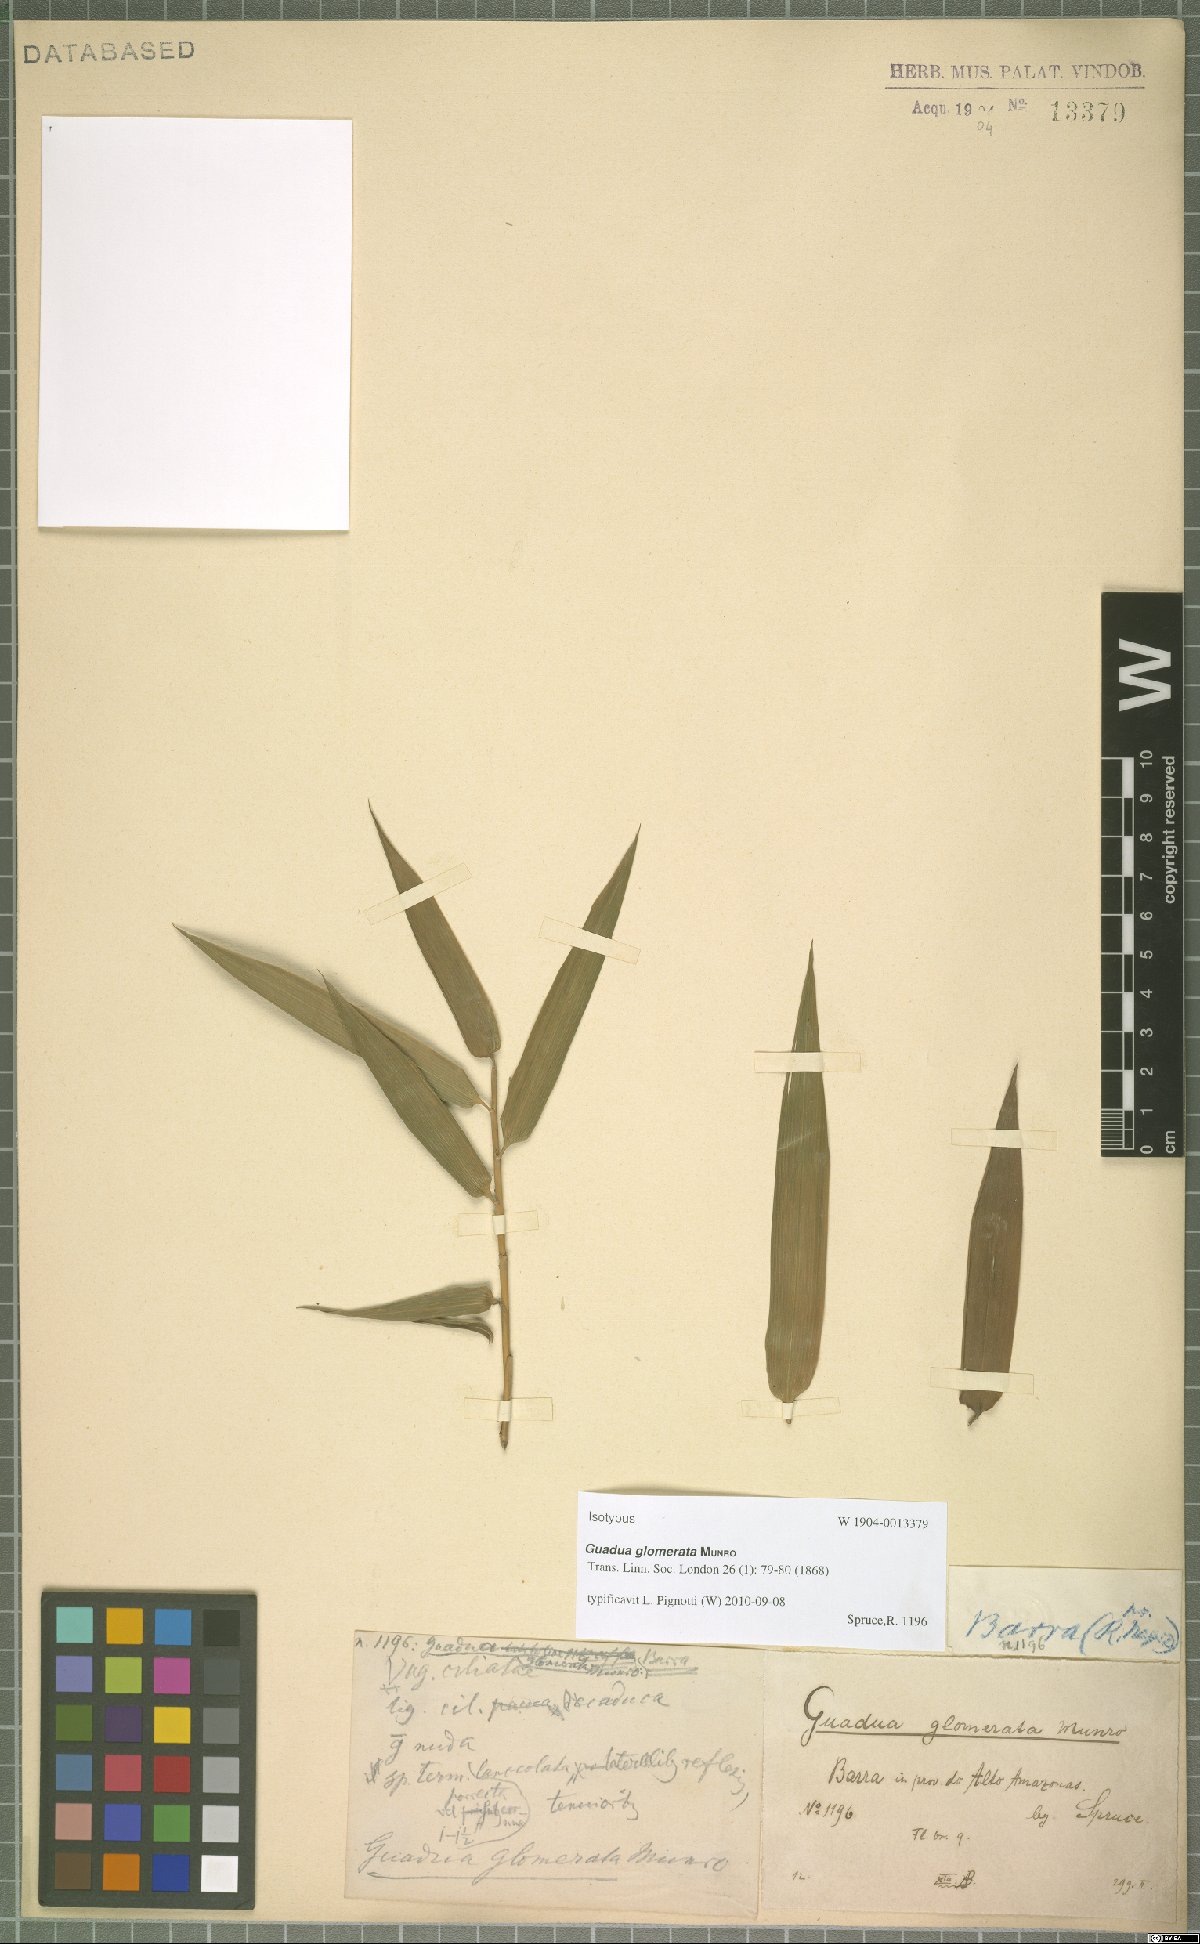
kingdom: Plantae
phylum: Tracheophyta
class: Liliopsida
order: Poales
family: Poaceae
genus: Guadua
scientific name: Guadua glomerata
